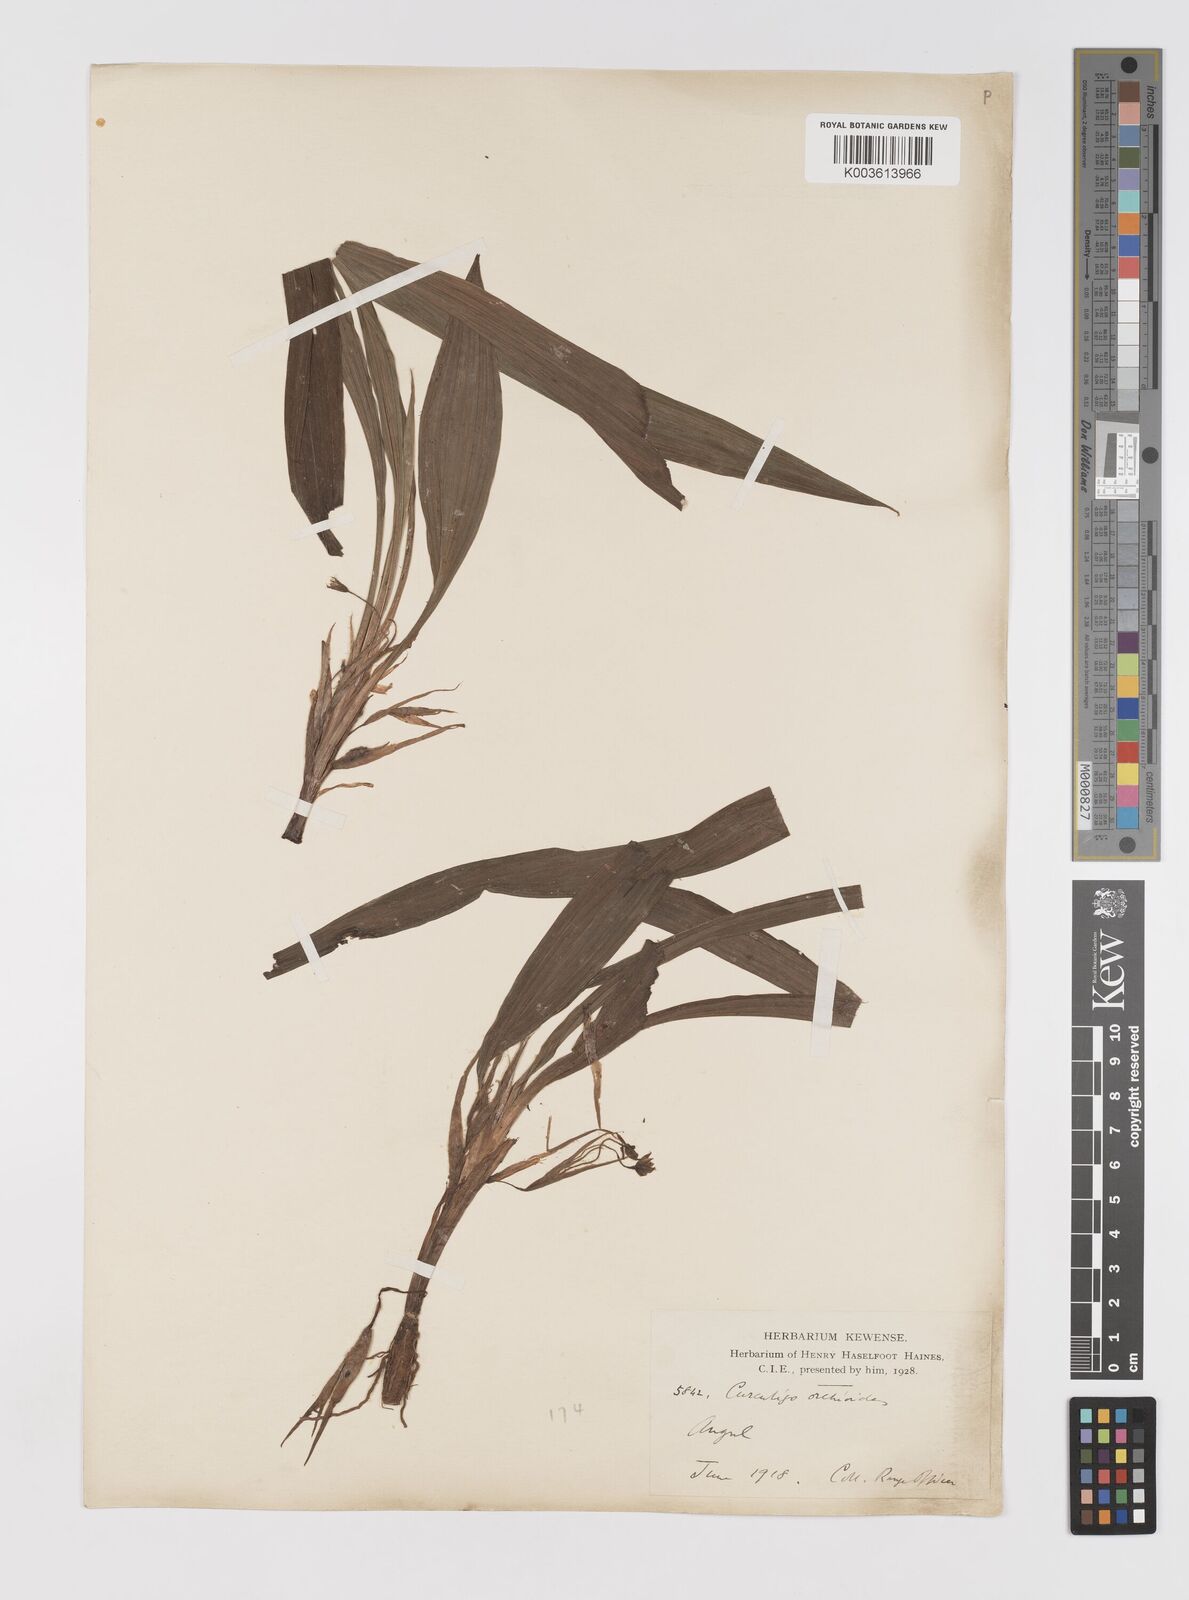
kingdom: Plantae
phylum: Tracheophyta
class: Liliopsida
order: Asparagales
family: Hypoxidaceae
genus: Curculigo
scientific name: Curculigo orchioides
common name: Golden eye-grass
